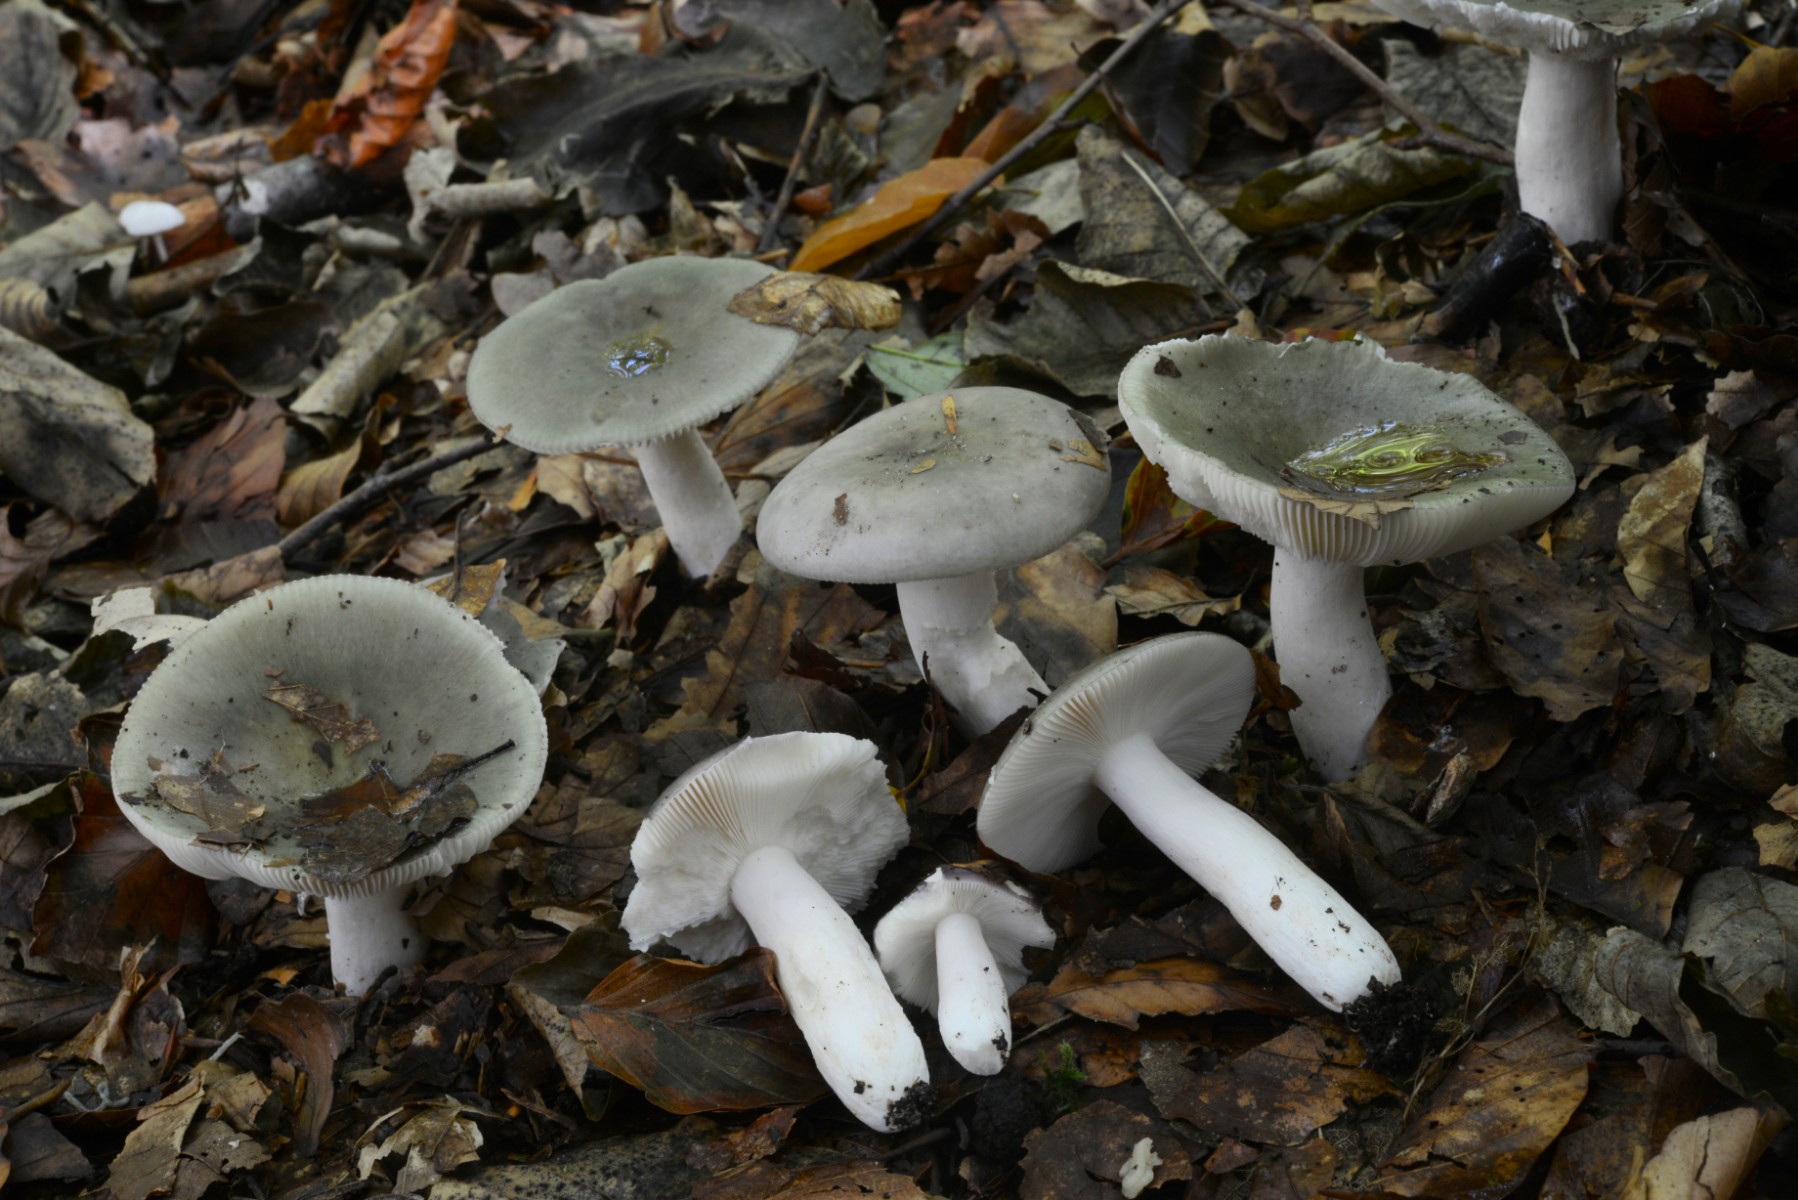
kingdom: Fungi
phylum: Basidiomycota
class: Agaricomycetes
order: Russulales
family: Russulaceae
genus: Russula
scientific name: Russula grisea
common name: grålig skørhat
